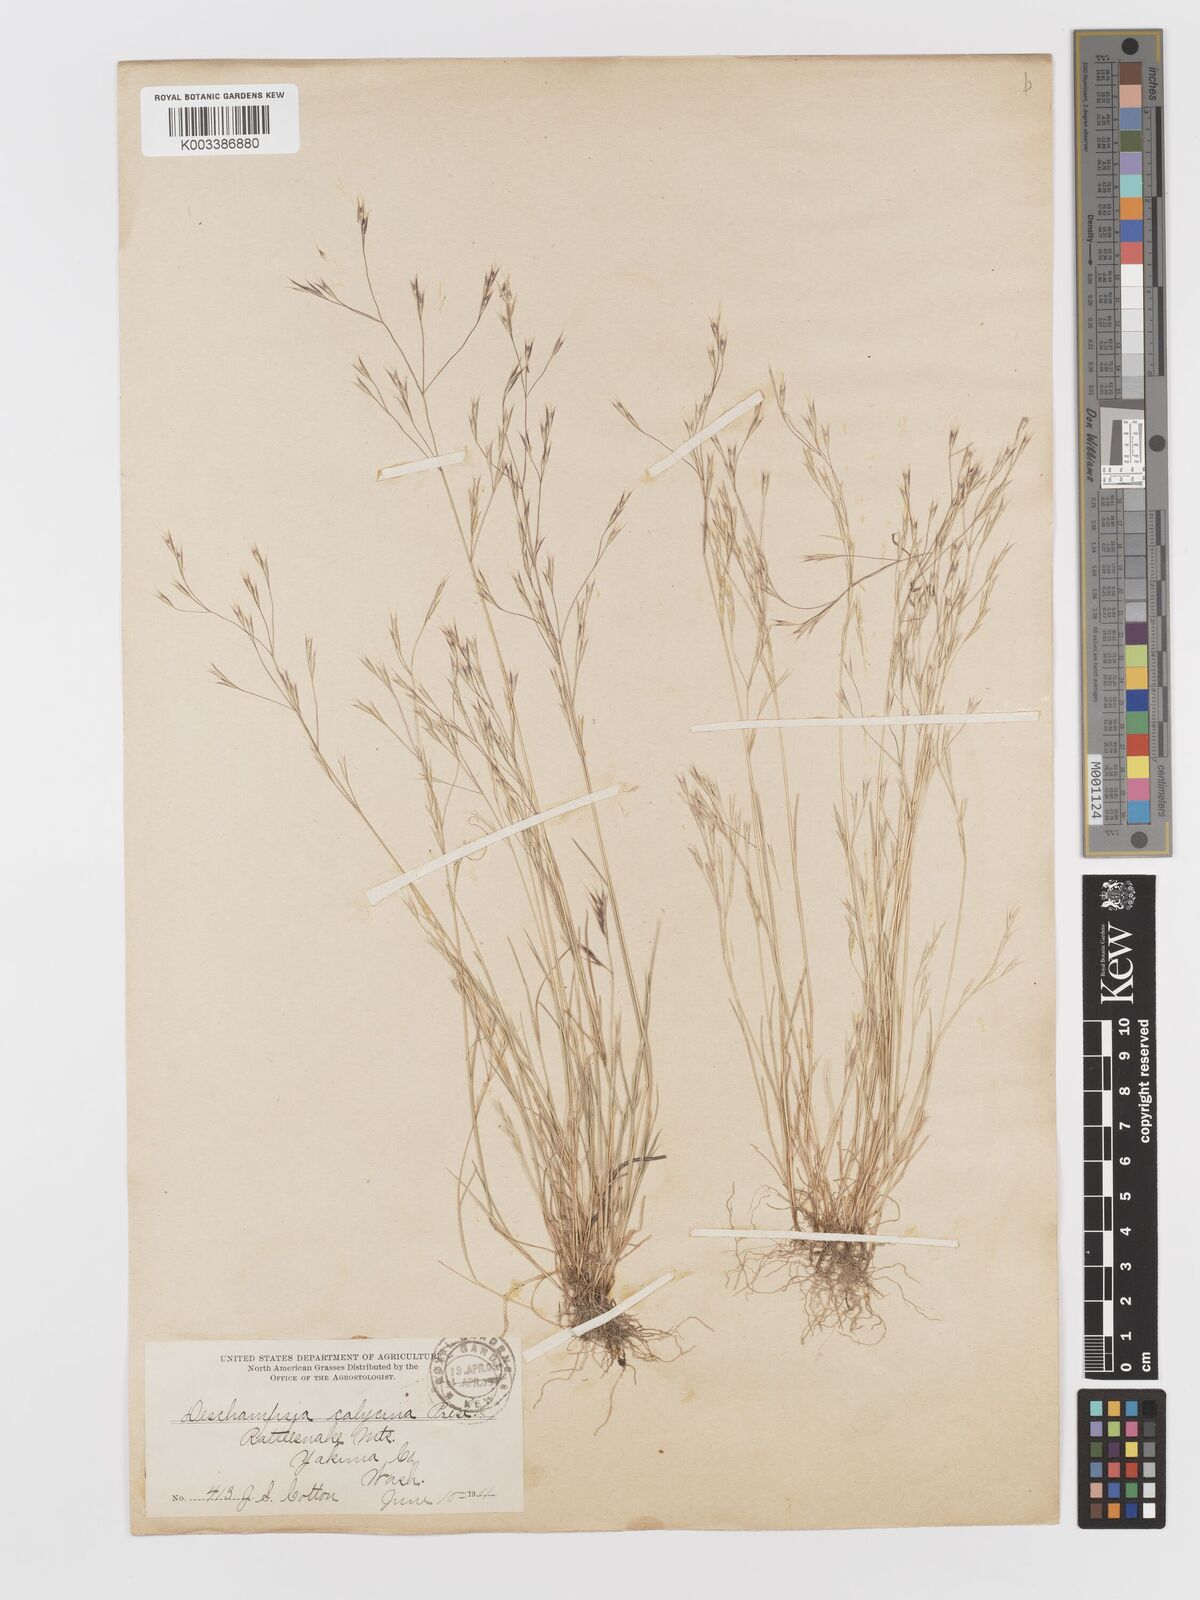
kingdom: Plantae
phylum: Tracheophyta
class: Liliopsida
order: Poales
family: Poaceae
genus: Deschampsia
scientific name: Deschampsia danthonioides
